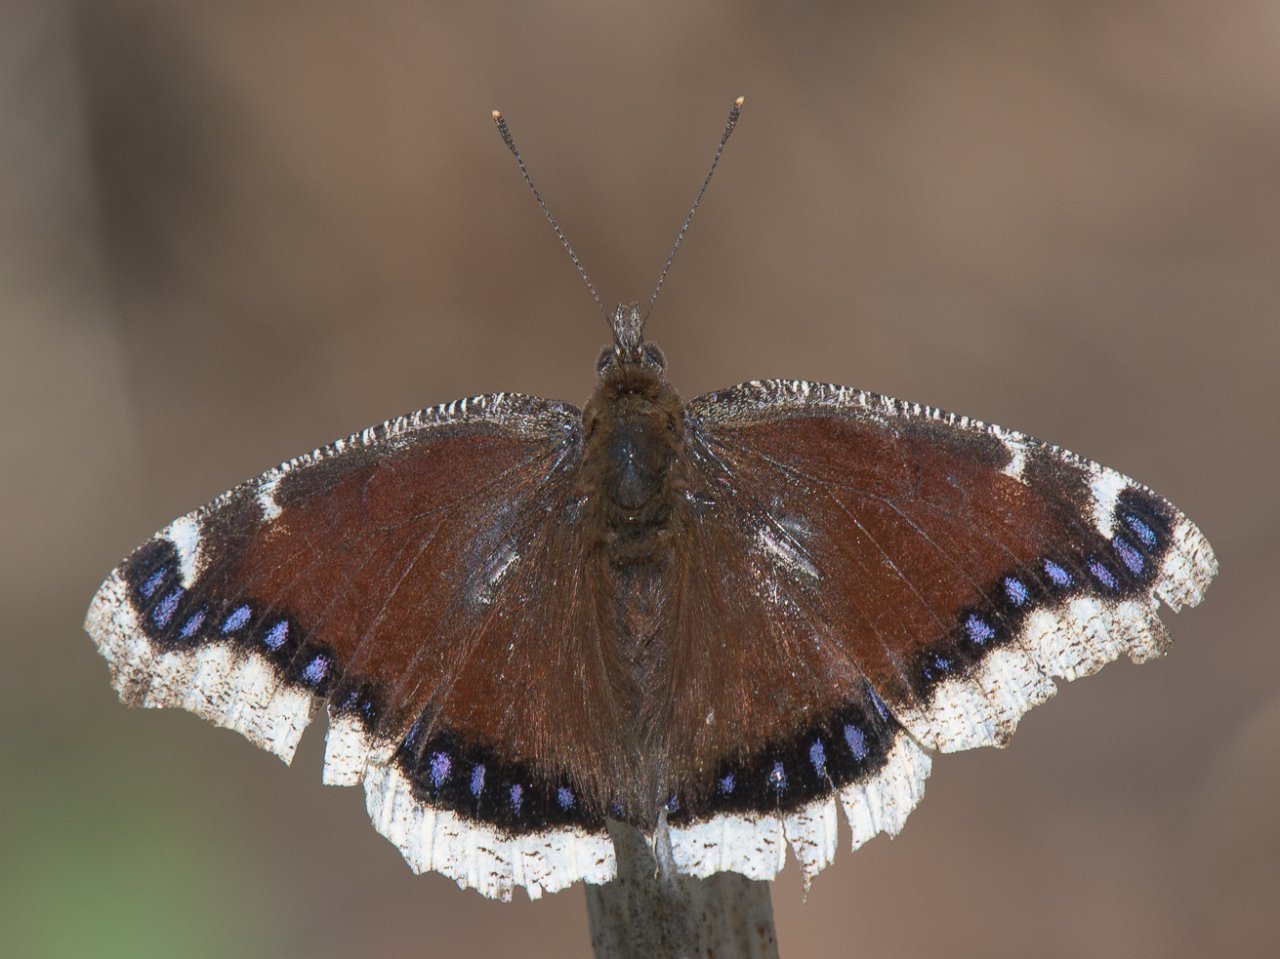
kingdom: Animalia
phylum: Arthropoda
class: Insecta
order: Lepidoptera
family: Nymphalidae
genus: Nymphalis
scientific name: Nymphalis antiopa
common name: Mourning Cloak
